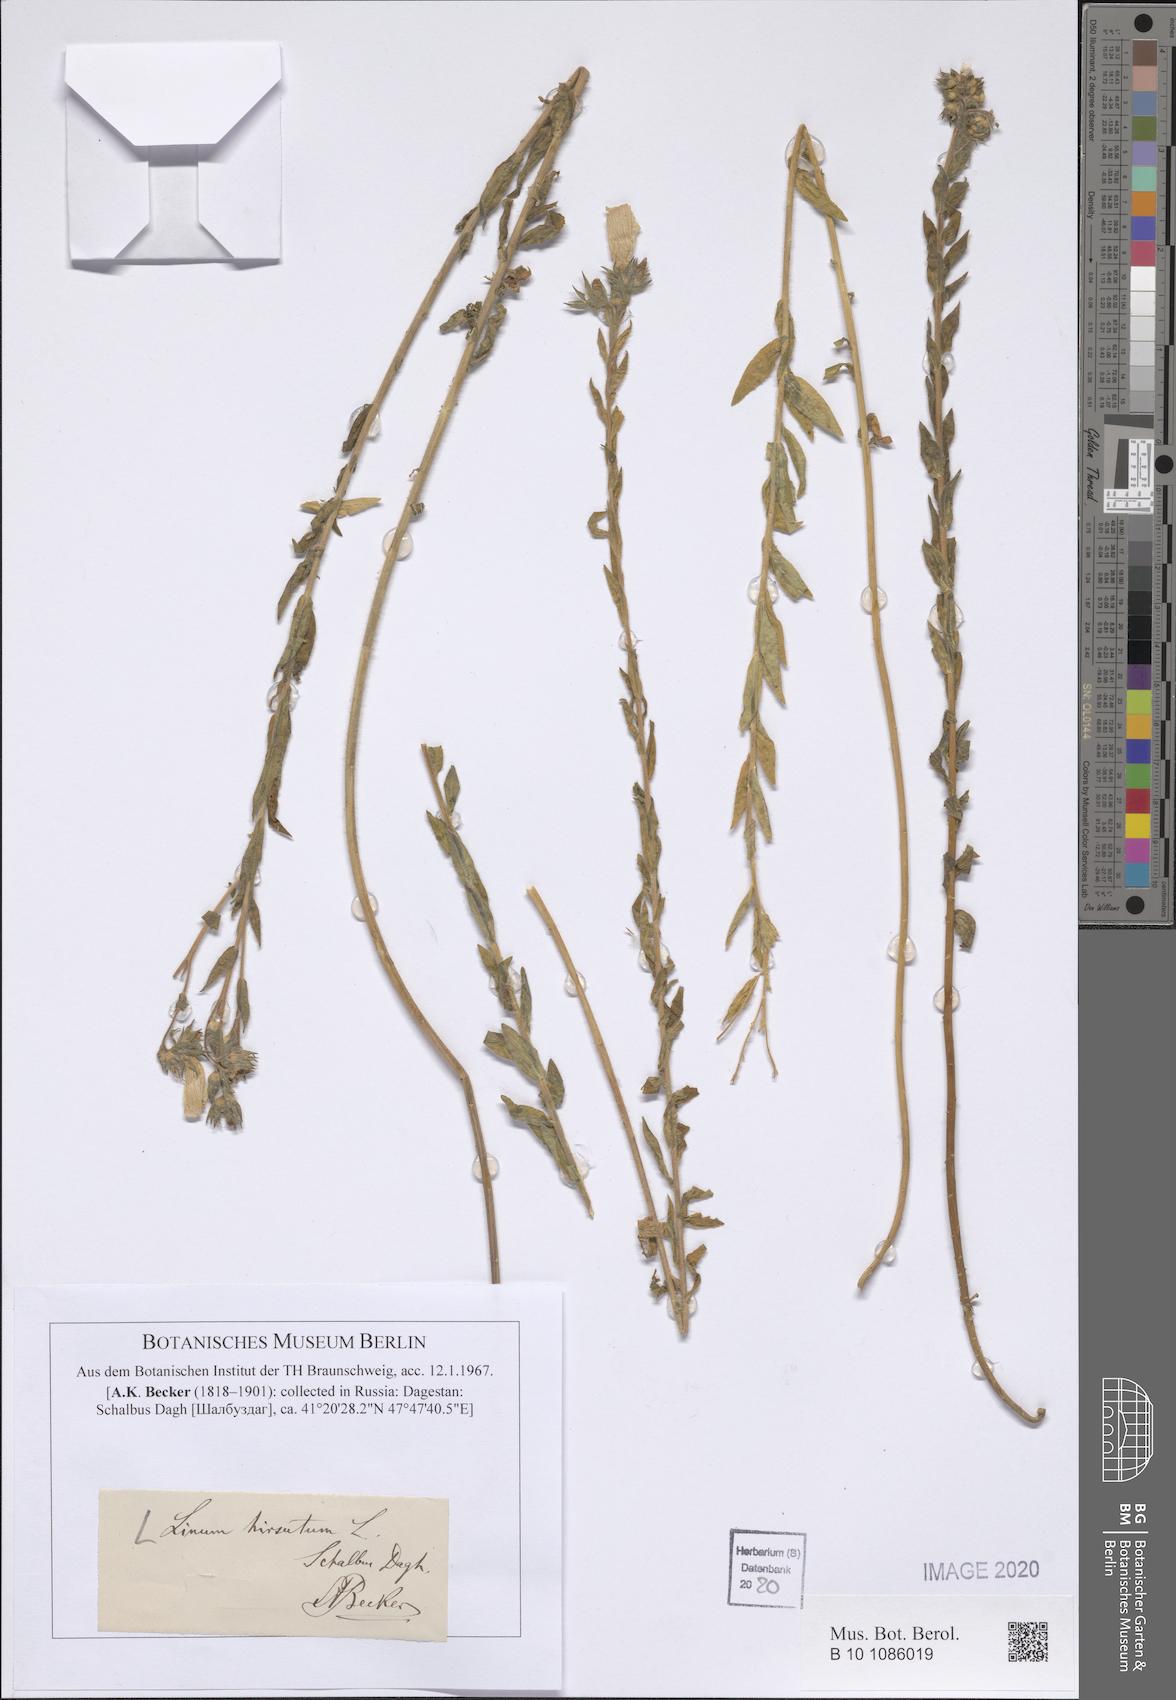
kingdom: Plantae
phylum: Tracheophyta
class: Magnoliopsida
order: Malpighiales
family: Linaceae
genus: Linum
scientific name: Linum hirsutum
